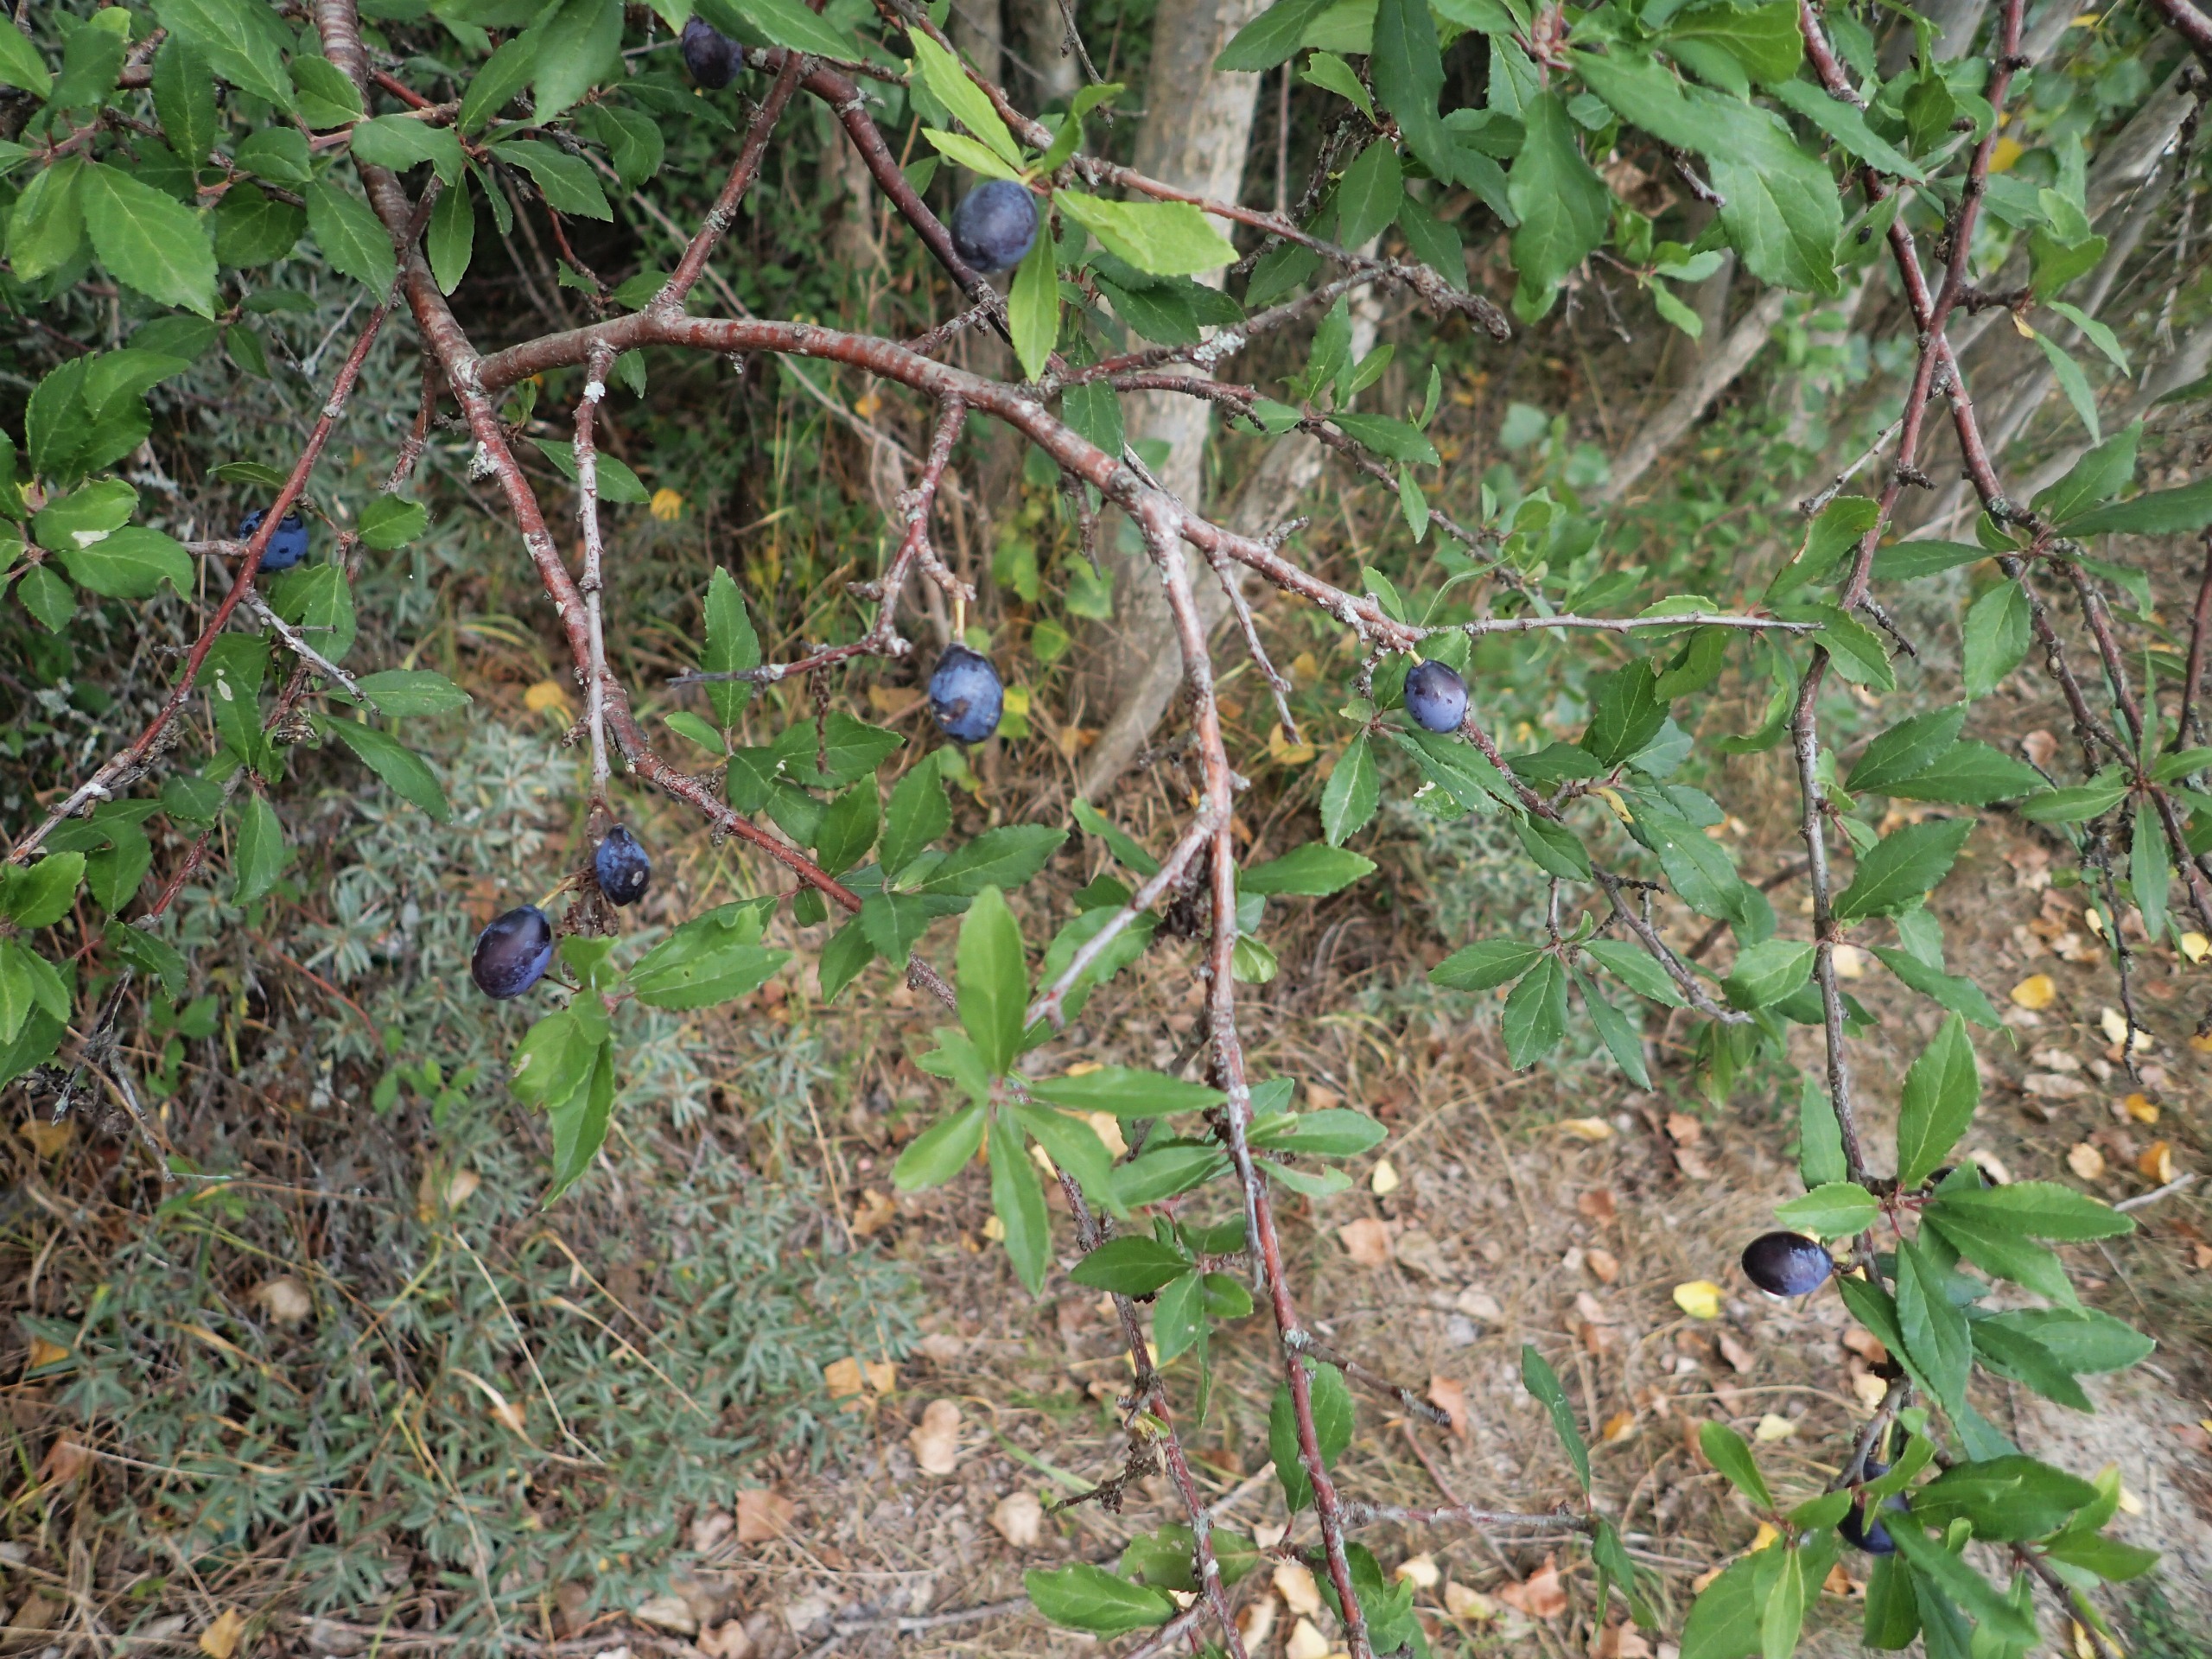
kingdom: Plantae
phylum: Tracheophyta
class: Magnoliopsida
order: Rosales
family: Rosaceae
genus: Prunus
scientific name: Prunus spinosa
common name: Slåen
